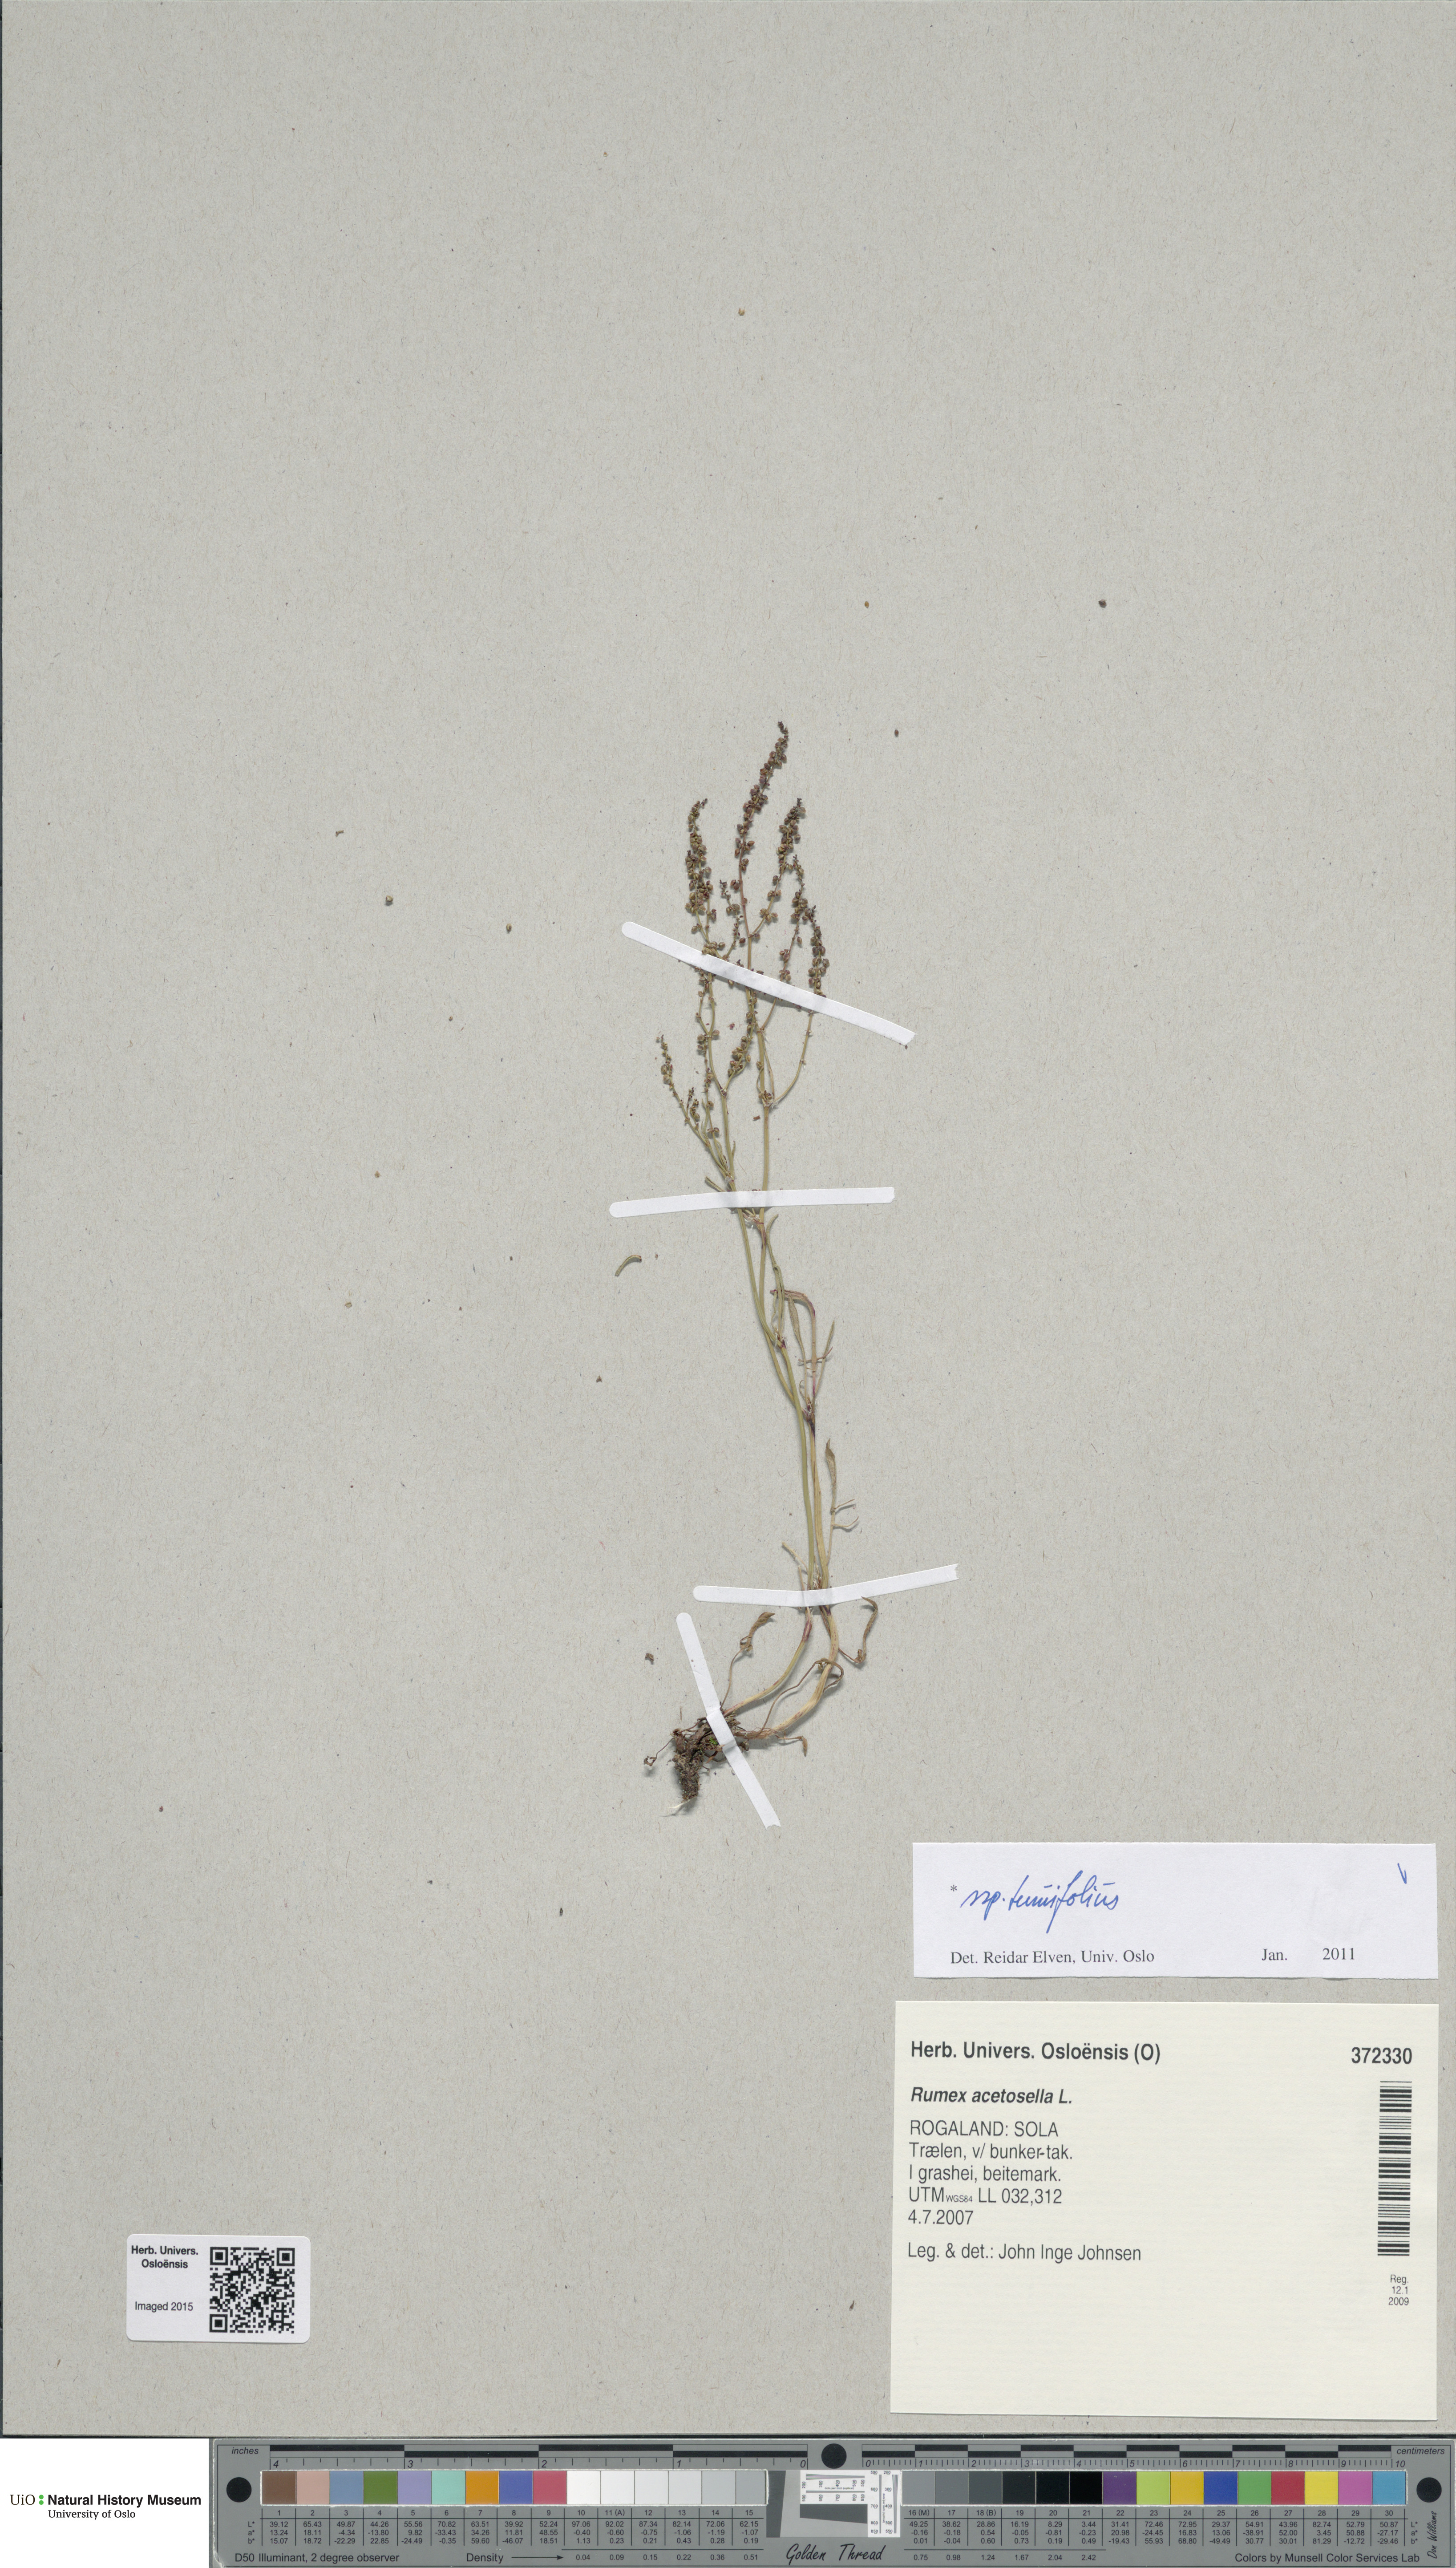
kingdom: Plantae
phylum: Tracheophyta
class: Magnoliopsida
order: Caryophyllales
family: Polygonaceae
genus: Rumex
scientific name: Rumex acetosella
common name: Common sheep sorrel
